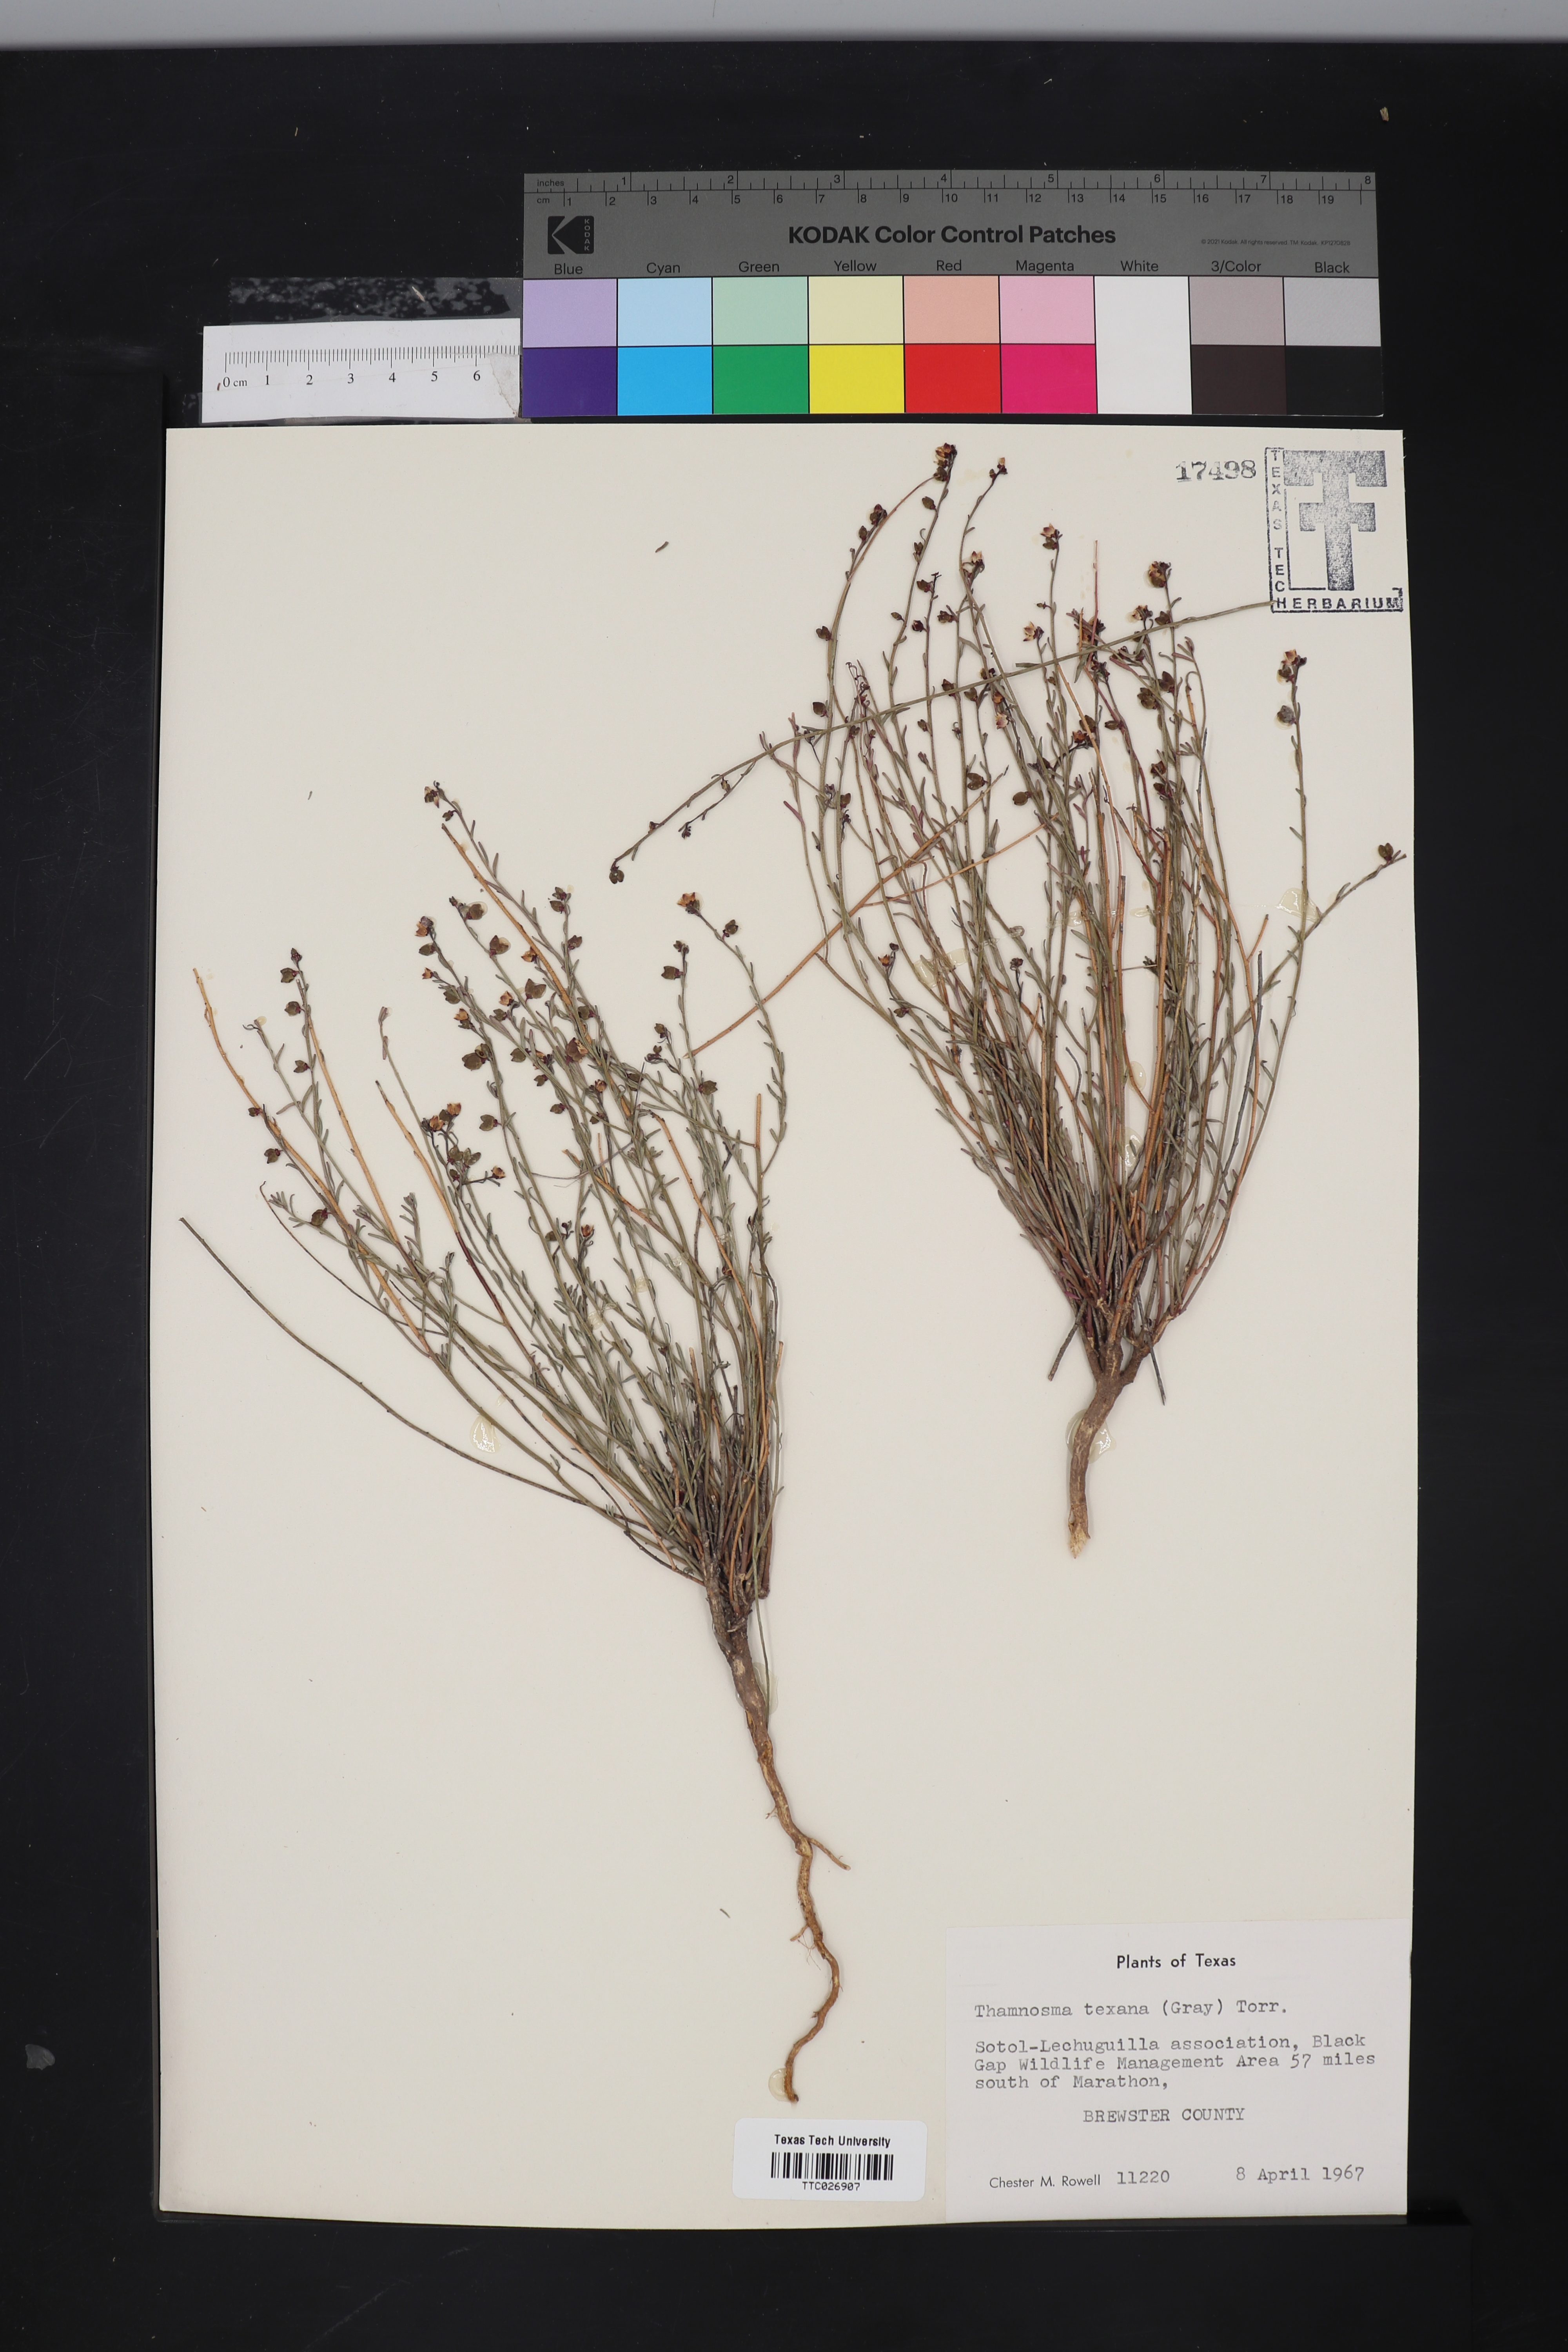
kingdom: Plantae
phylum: Tracheophyta
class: Magnoliopsida
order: Sapindales
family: Rutaceae
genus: Thamnosma
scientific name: Thamnosma texana
